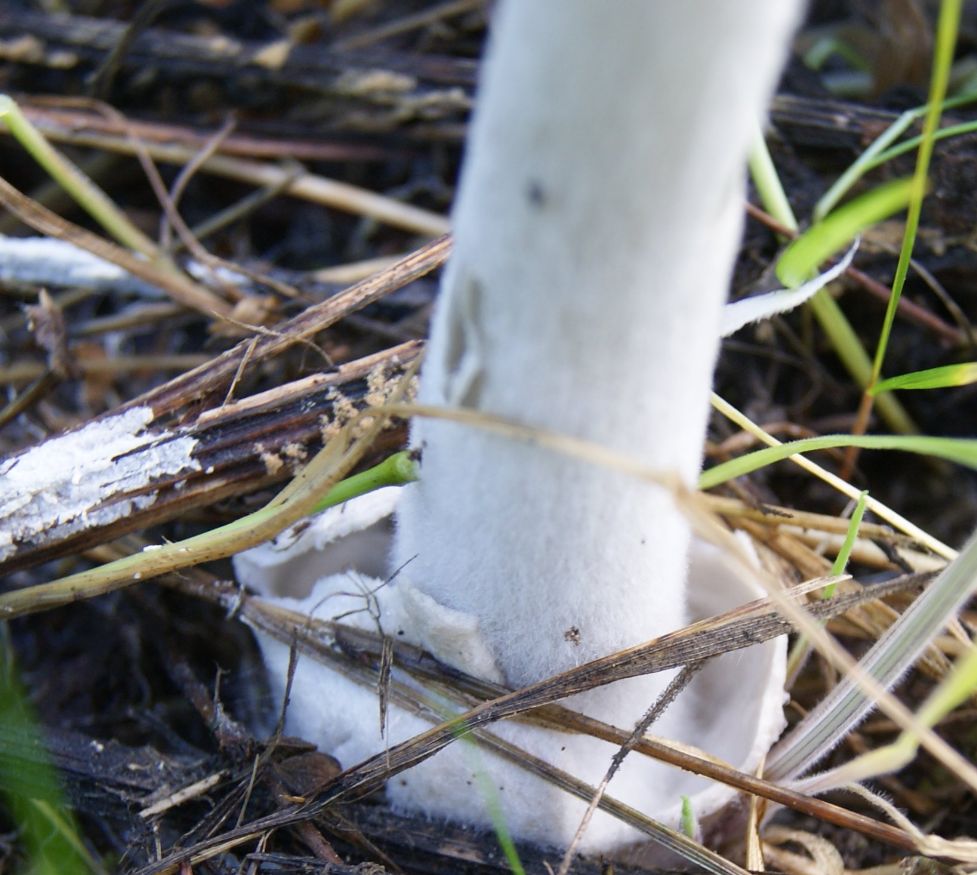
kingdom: Fungi
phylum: Basidiomycota
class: Agaricomycetes
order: Agaricales
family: Pluteaceae
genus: Volvopluteus
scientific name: Volvopluteus gloiocephalus
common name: høj posesvamp
